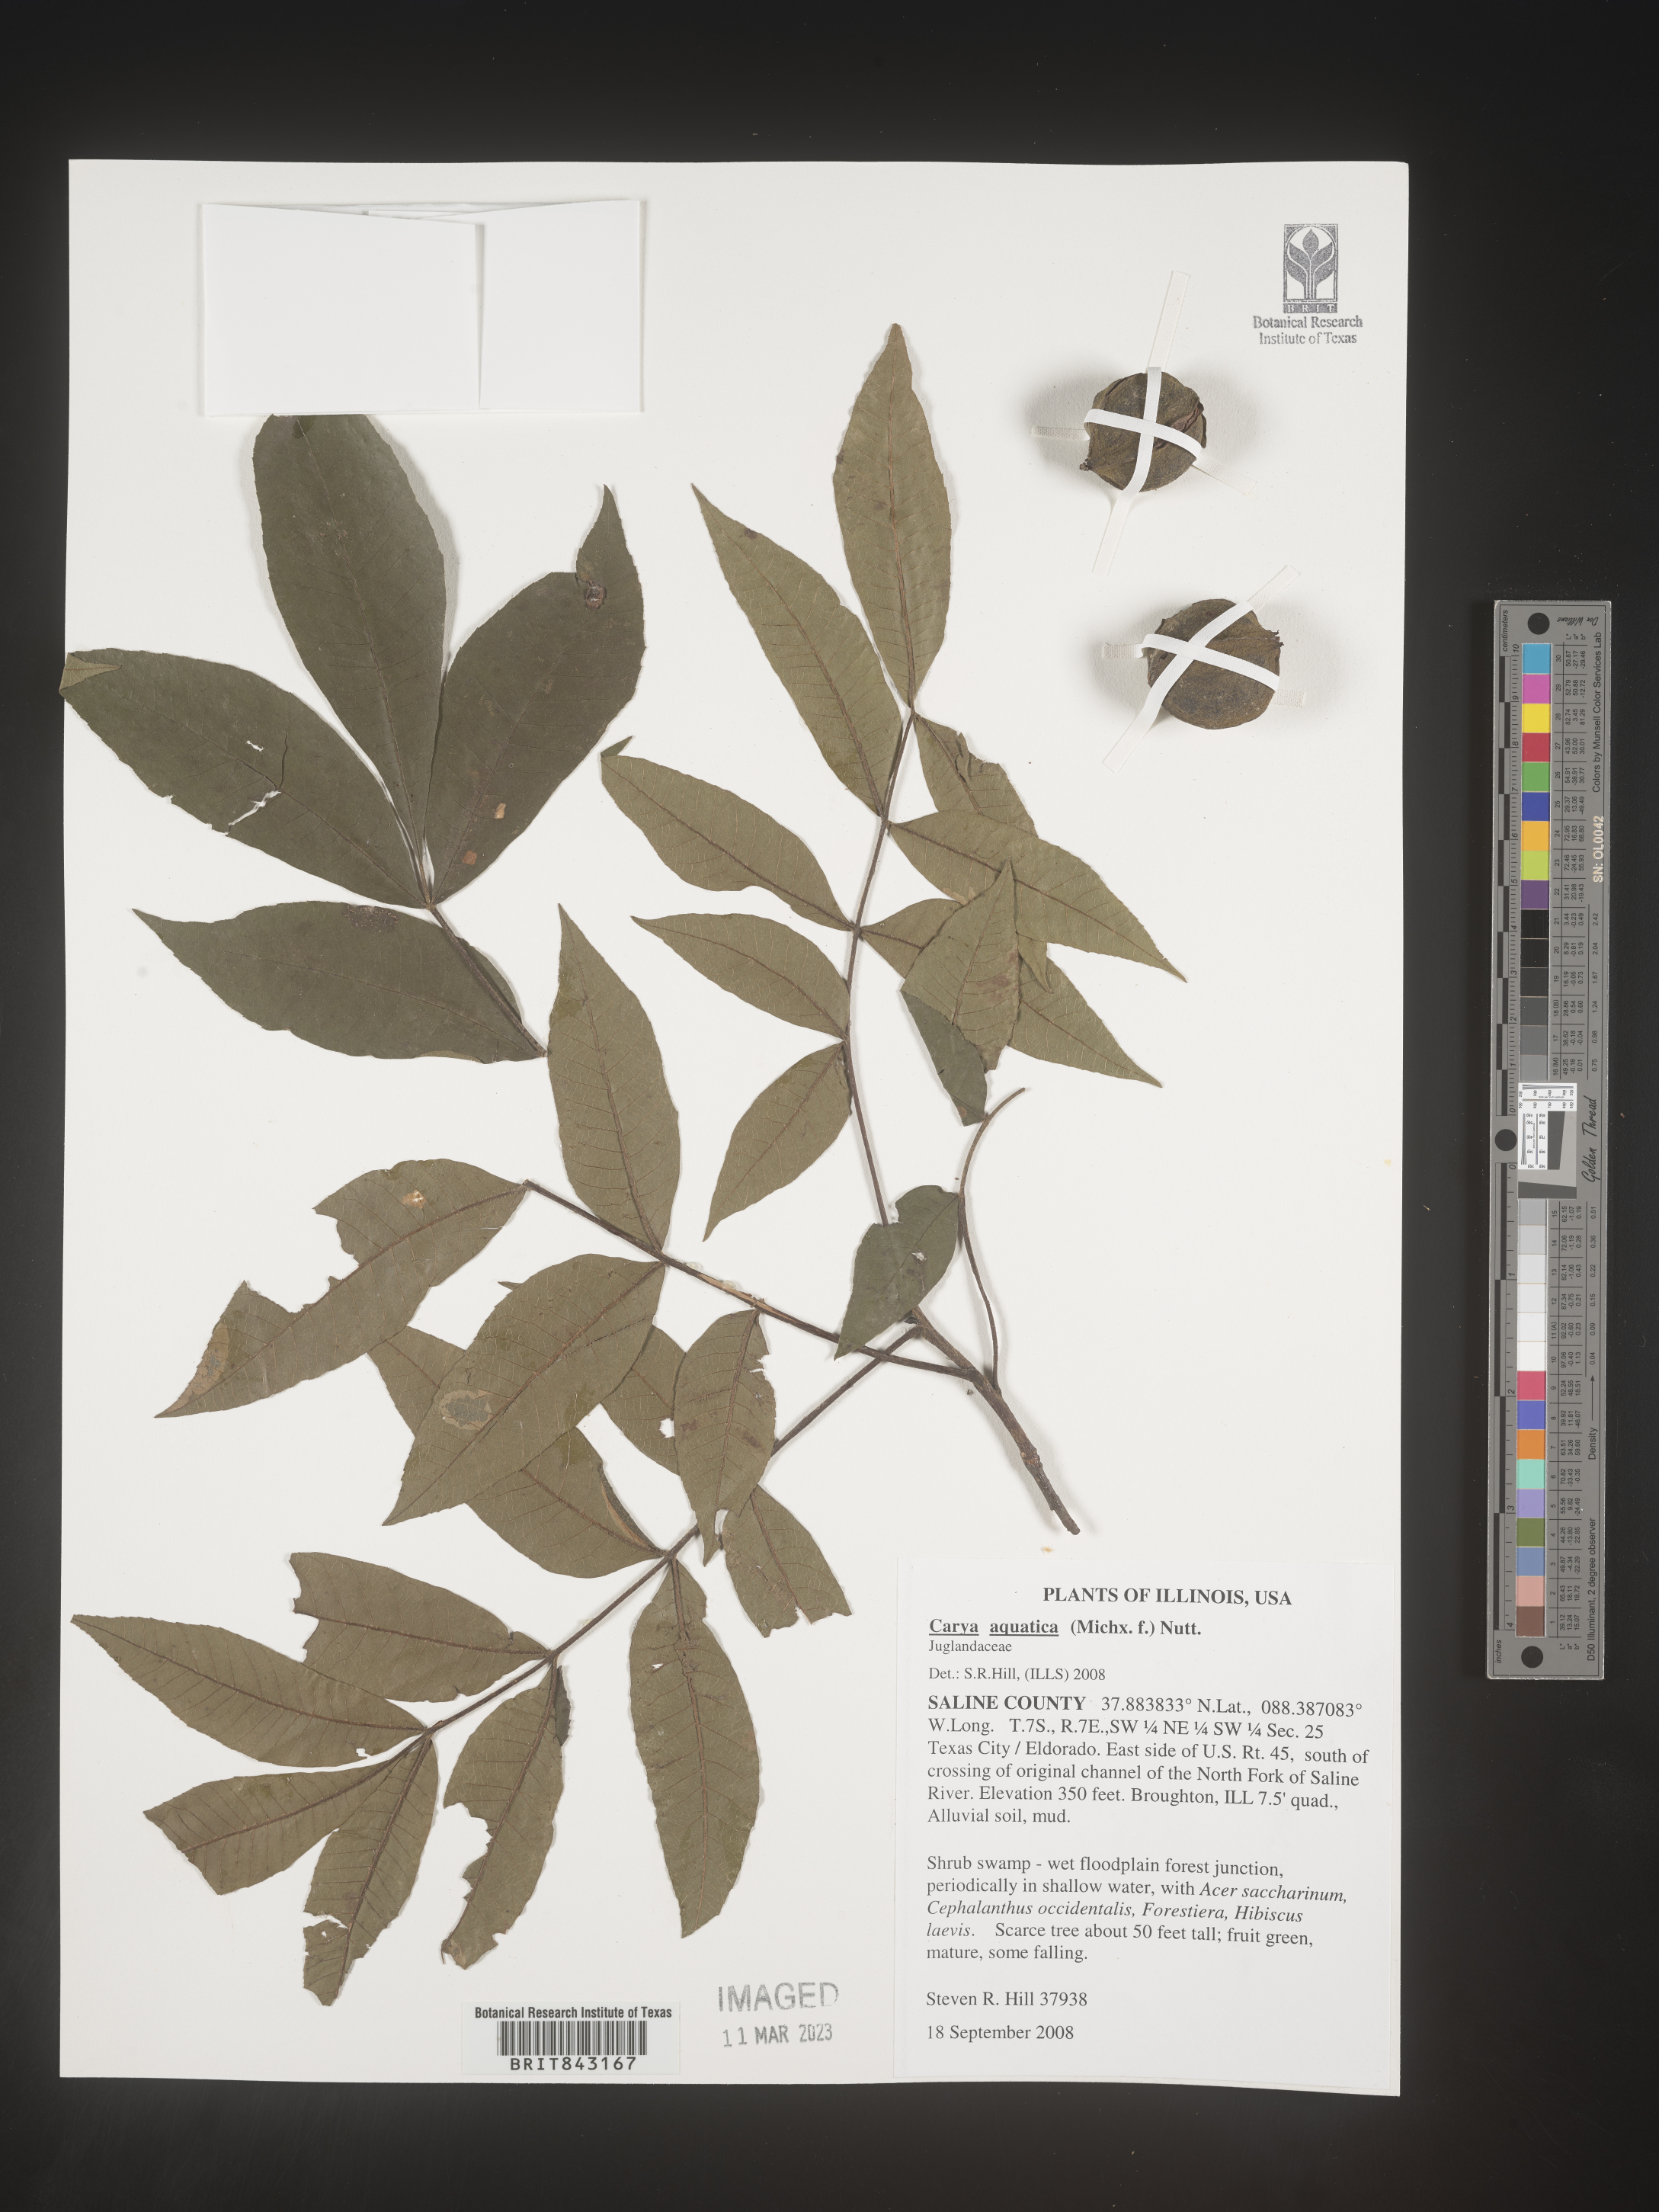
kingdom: Plantae
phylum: Tracheophyta
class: Magnoliopsida
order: Fagales
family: Juglandaceae
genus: Carya
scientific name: Carya aquatica
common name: Water hickory
